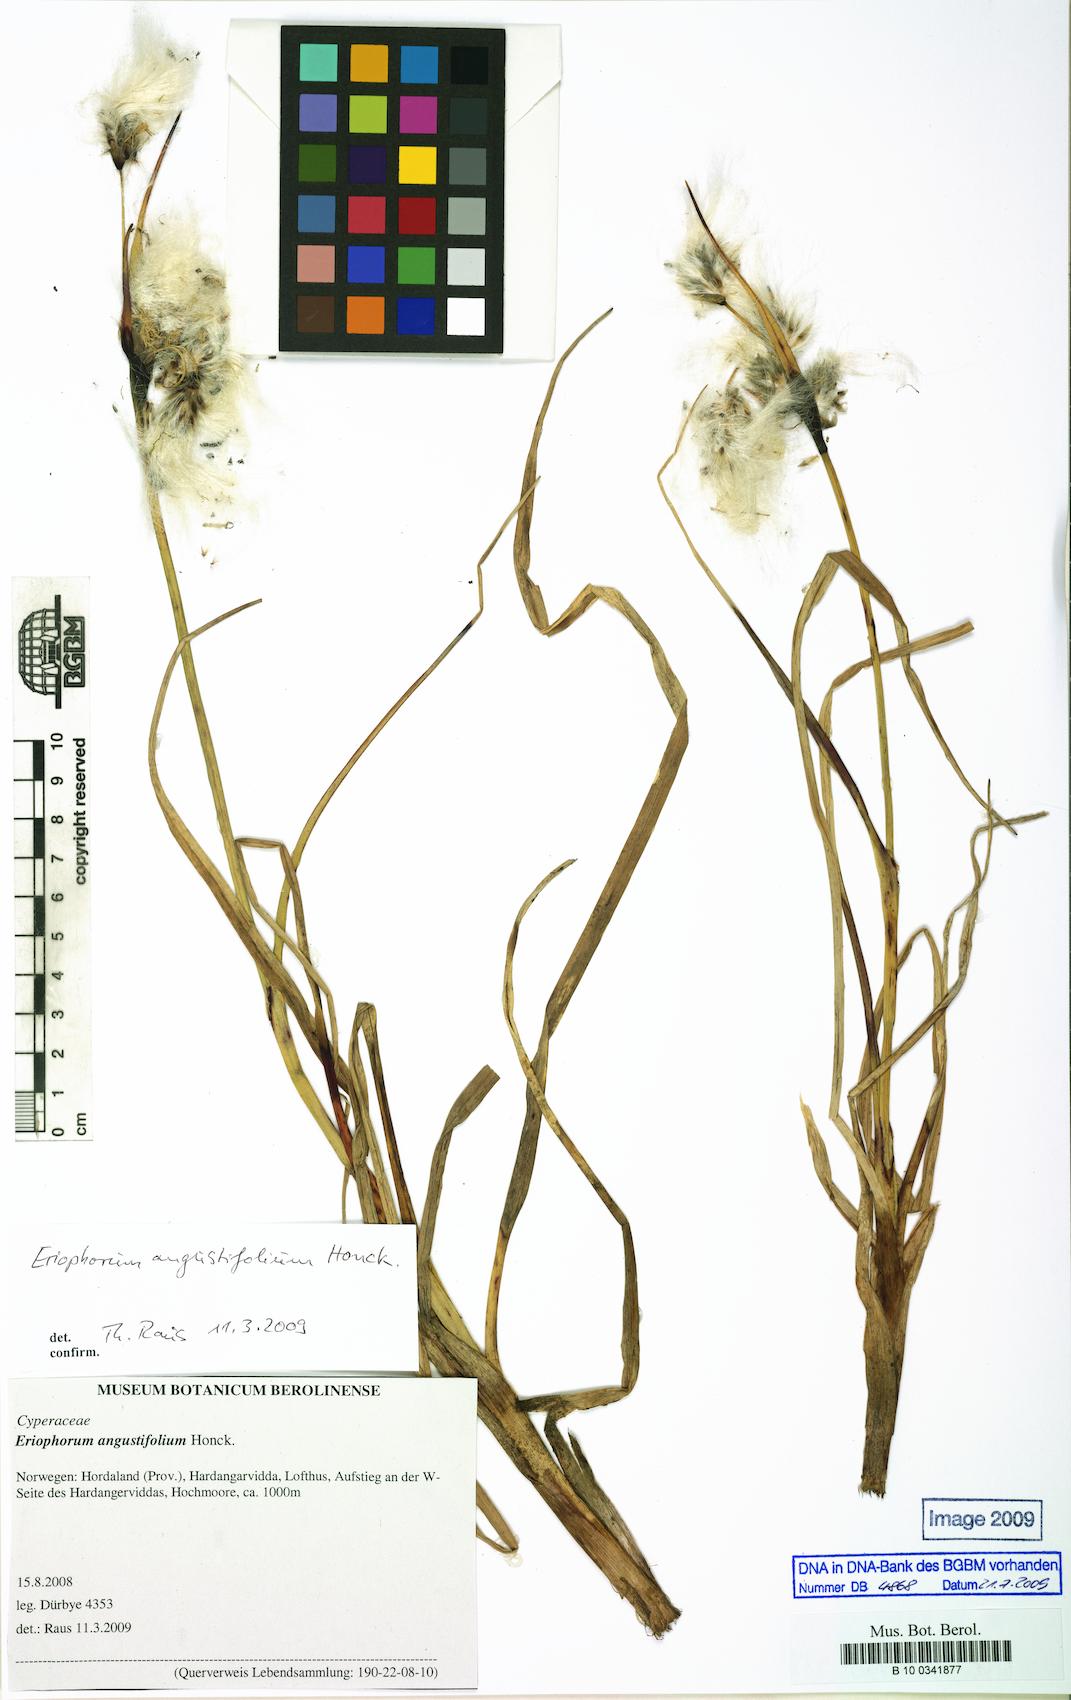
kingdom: Plantae
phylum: Tracheophyta
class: Liliopsida
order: Poales
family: Cyperaceae
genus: Eriophorum
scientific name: Eriophorum angustifolium
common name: Common cottongrass
